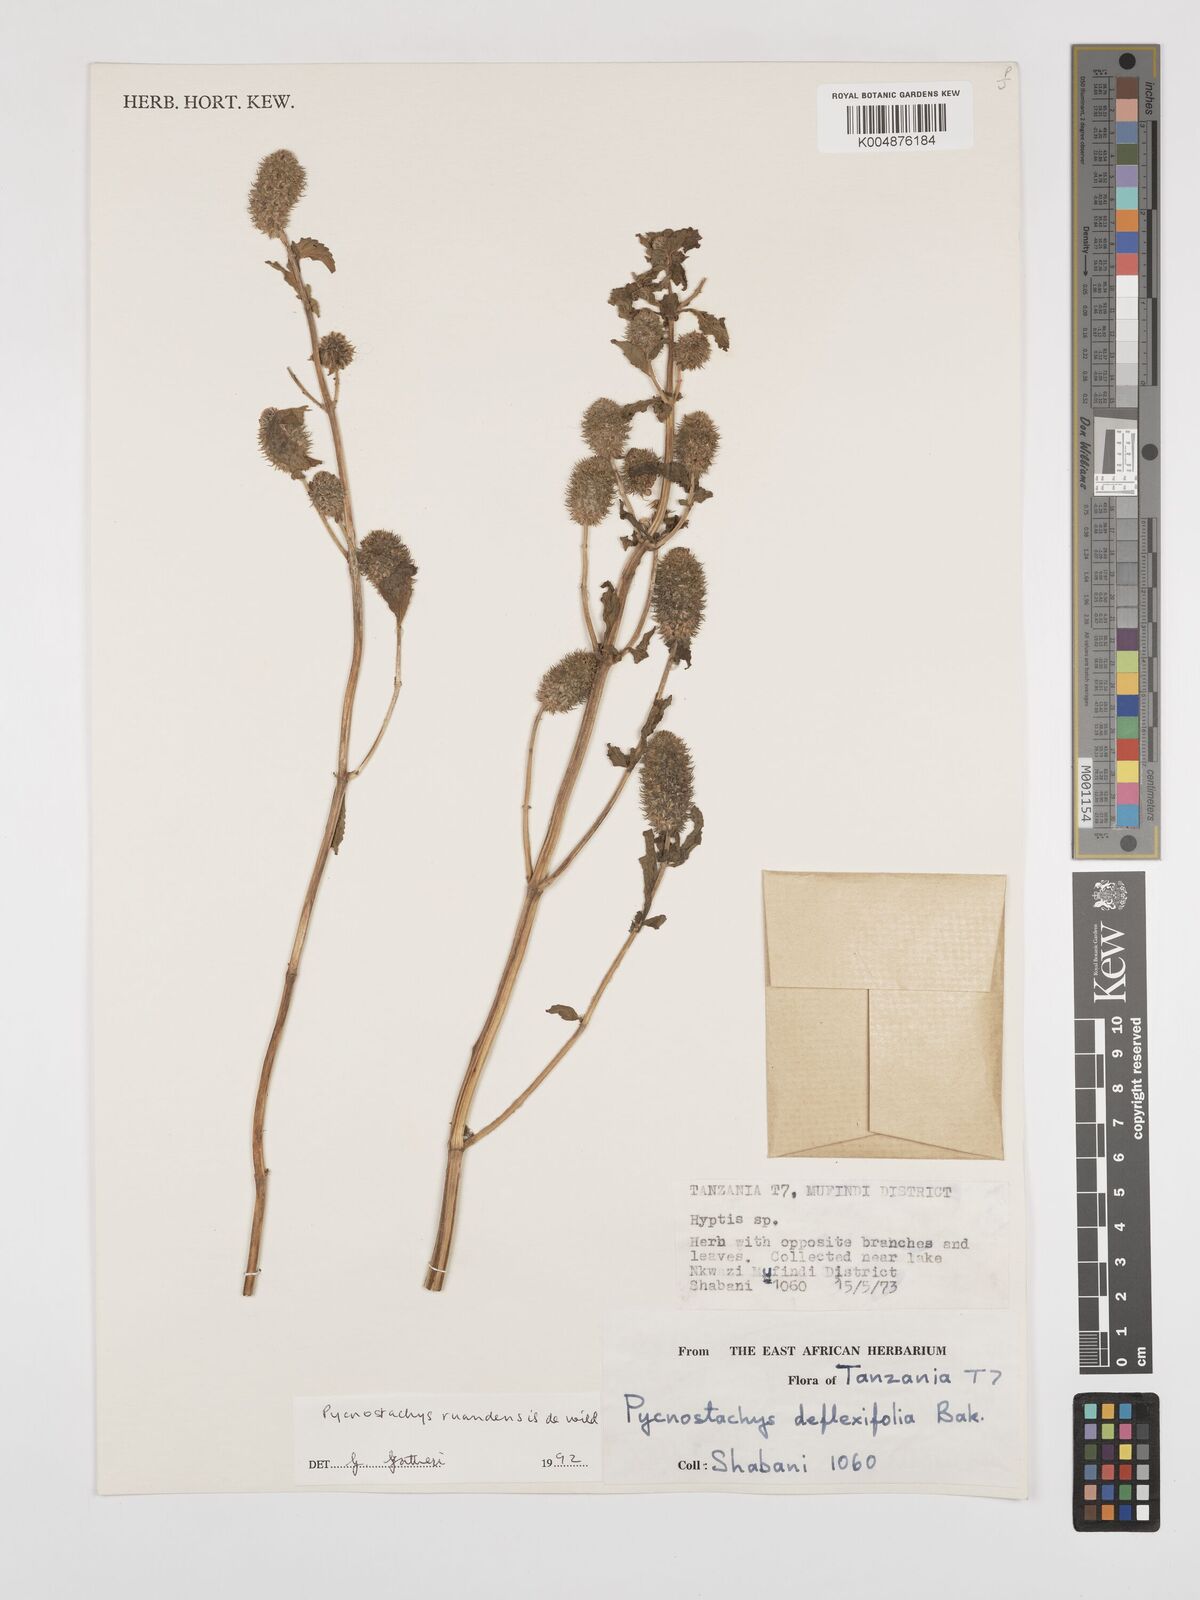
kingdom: Plantae
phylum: Tracheophyta
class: Magnoliopsida
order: Lamiales
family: Lamiaceae
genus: Coleus
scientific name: Coleus ruandensis
